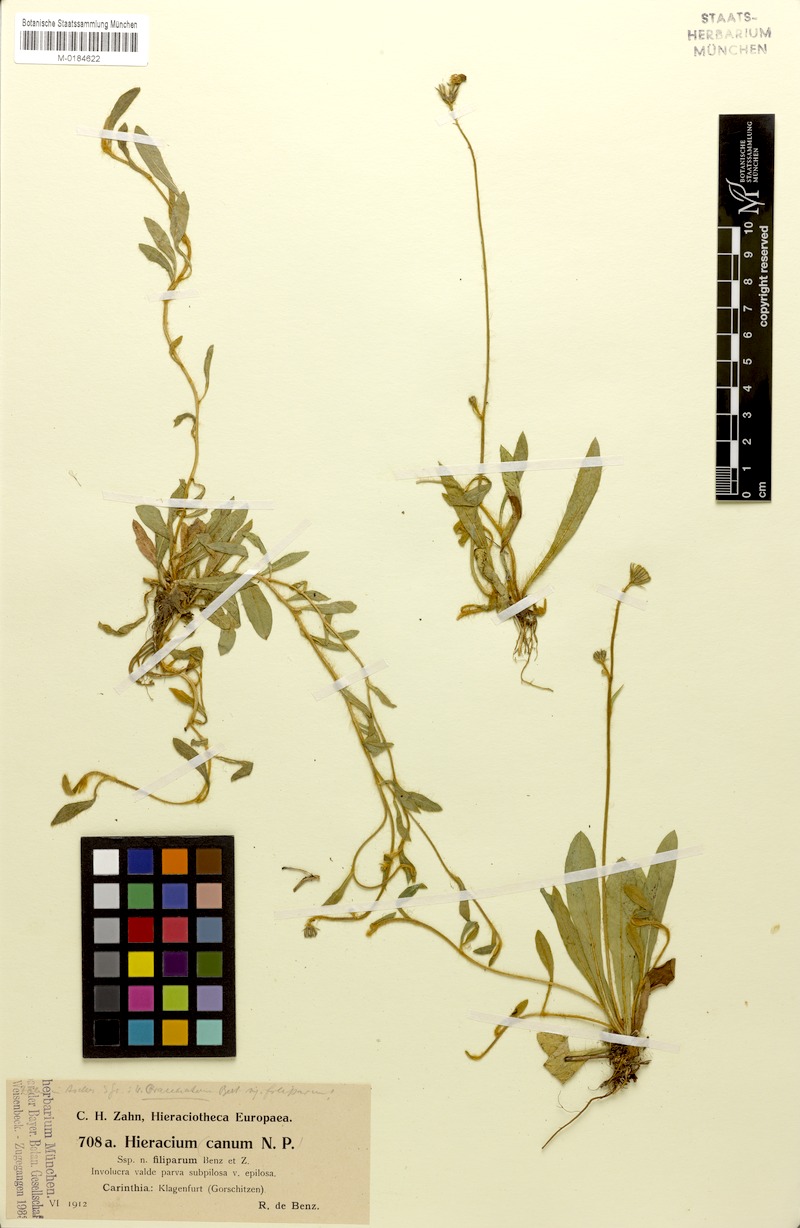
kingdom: Plantae
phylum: Tracheophyta
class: Magnoliopsida
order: Asterales
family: Asteraceae
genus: Pilosella
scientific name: Pilosella acutifolia
